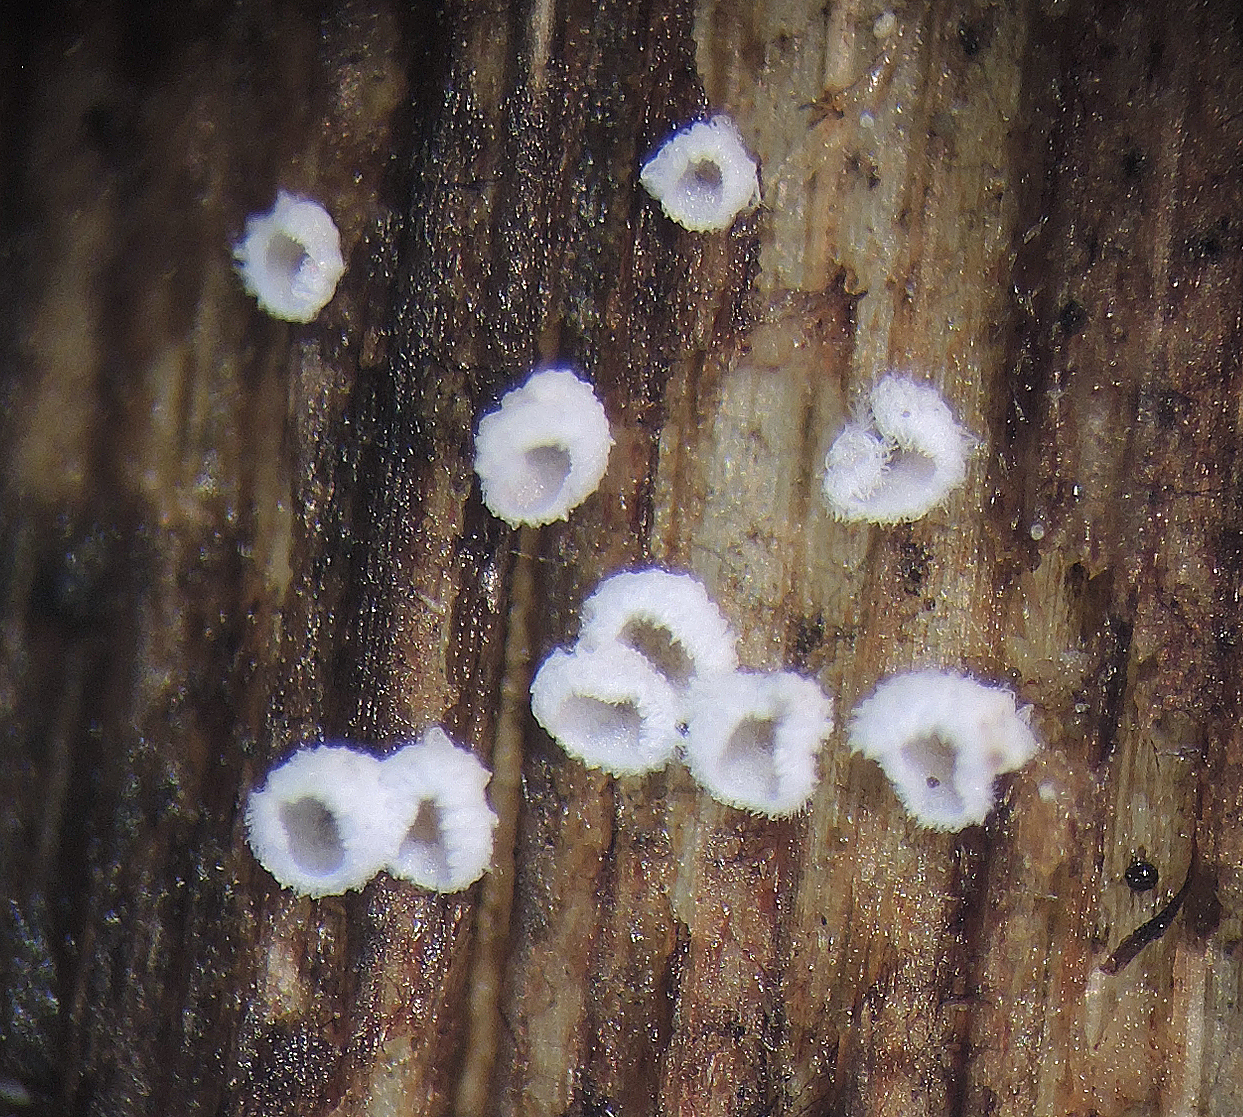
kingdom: Fungi
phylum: Basidiomycota
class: Agaricomycetes
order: Agaricales
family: Niaceae
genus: Flagelloscypha
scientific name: Flagelloscypha
